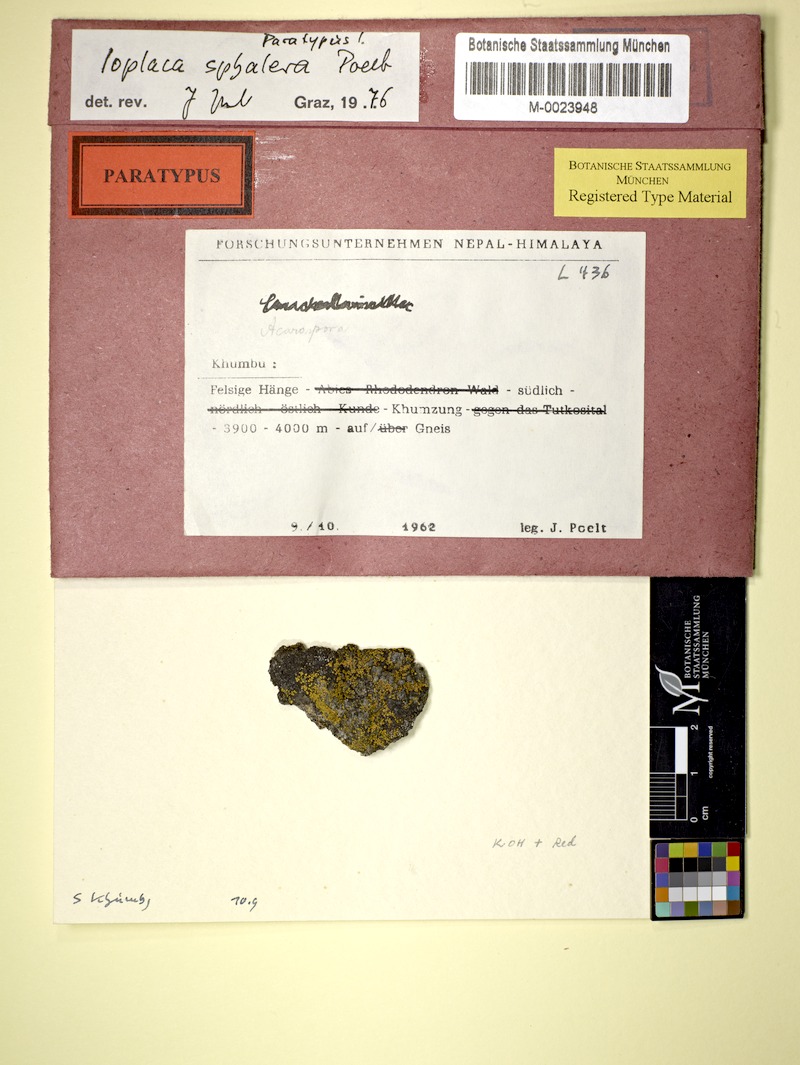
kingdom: Fungi
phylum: Ascomycota
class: Lecanoromycetes
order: Teloschistales
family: Teloschistaceae
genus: Ioplaca
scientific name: Ioplaca pindarensis
